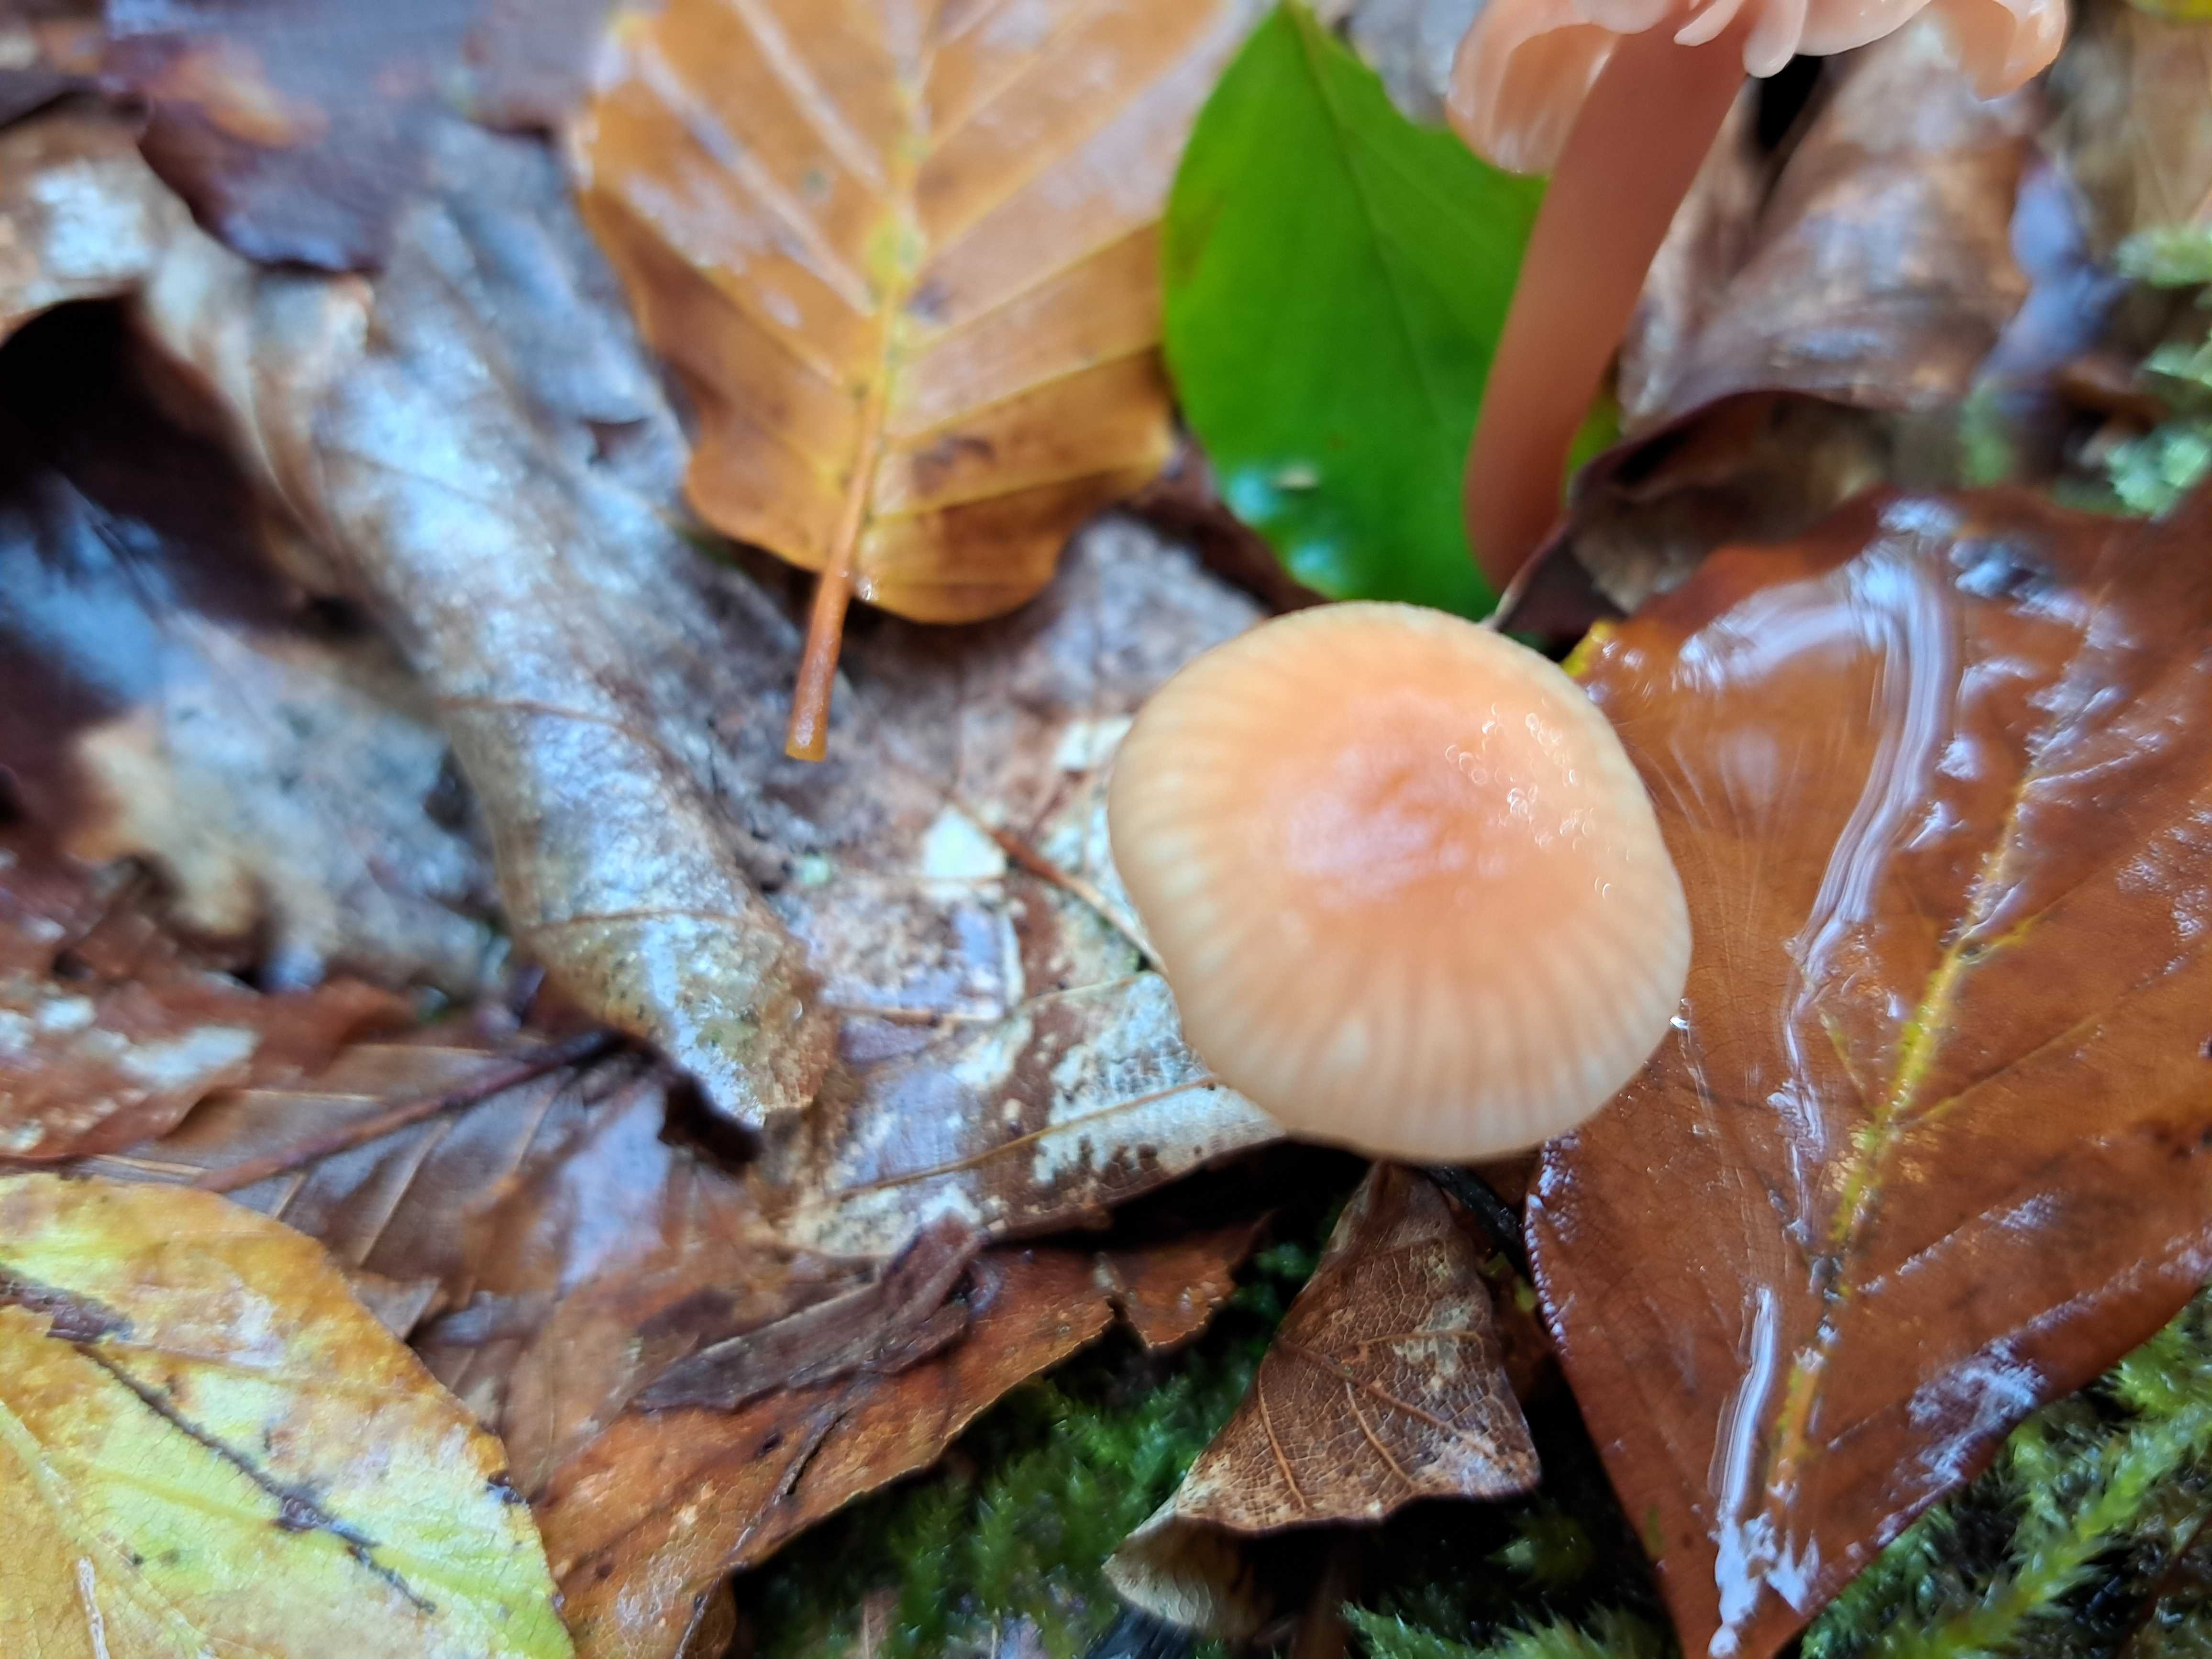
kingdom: Fungi
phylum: Basidiomycota
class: Agaricomycetes
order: Agaricales
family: Hydnangiaceae
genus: Laccaria
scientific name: Laccaria laccata
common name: rød ametysthat
